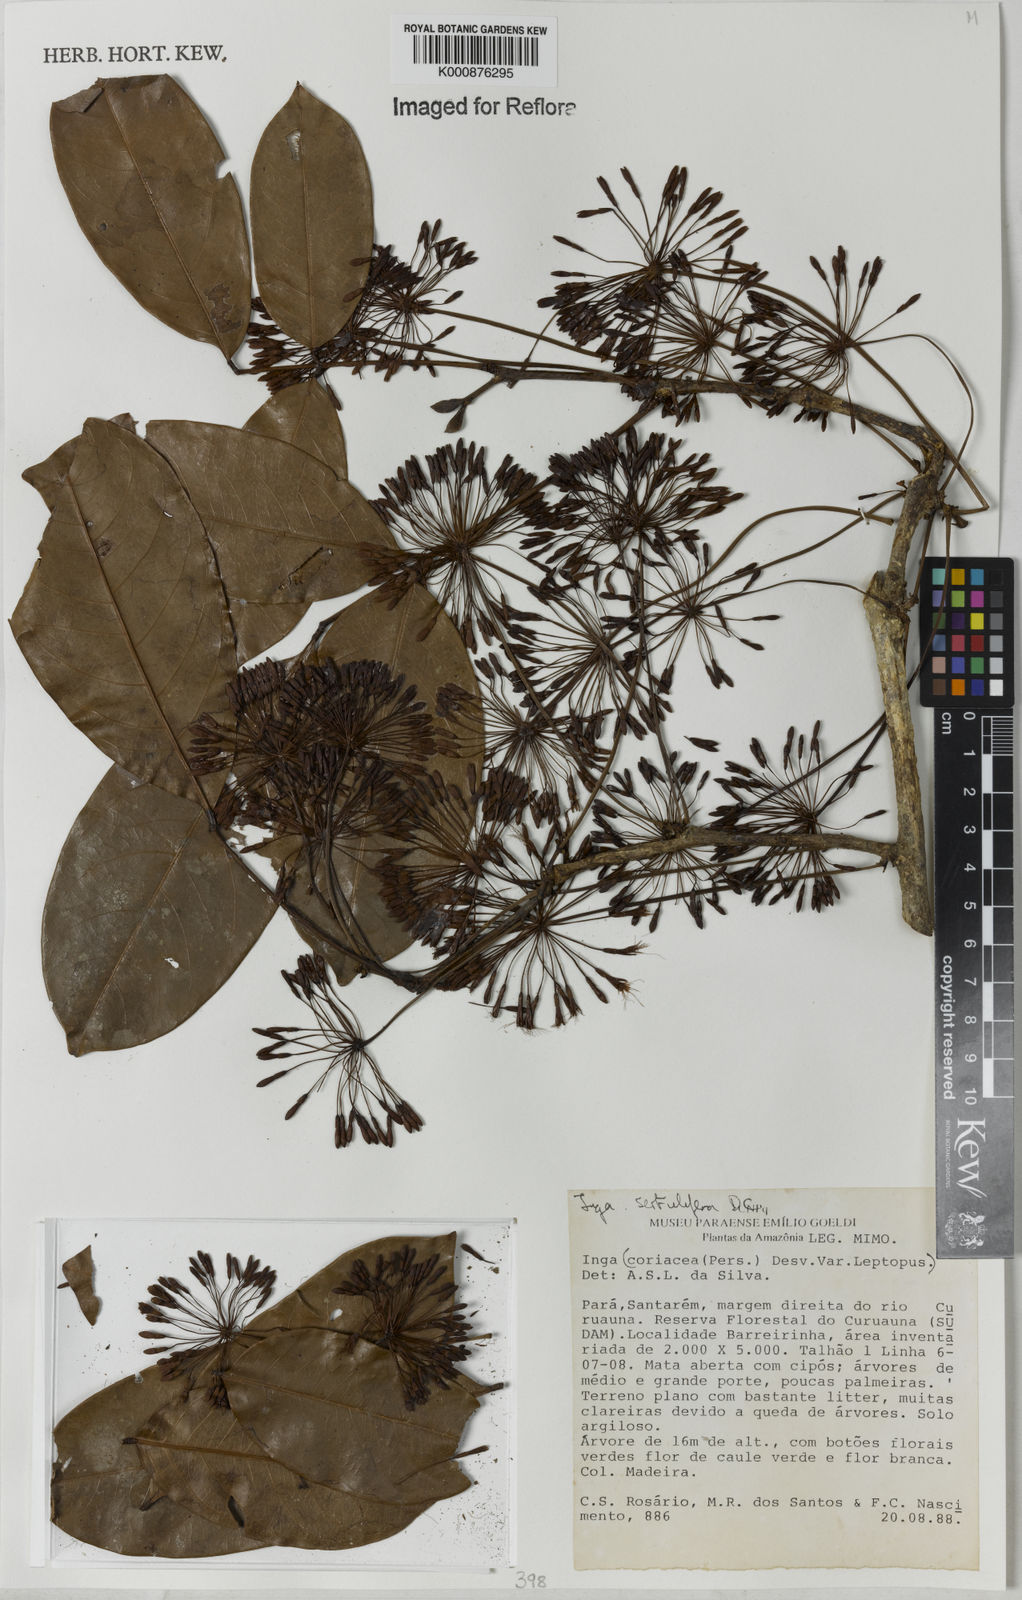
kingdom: Plantae
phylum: Tracheophyta
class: Magnoliopsida
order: Fabales
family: Fabaceae
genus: Inga
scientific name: Inga sertulifera
